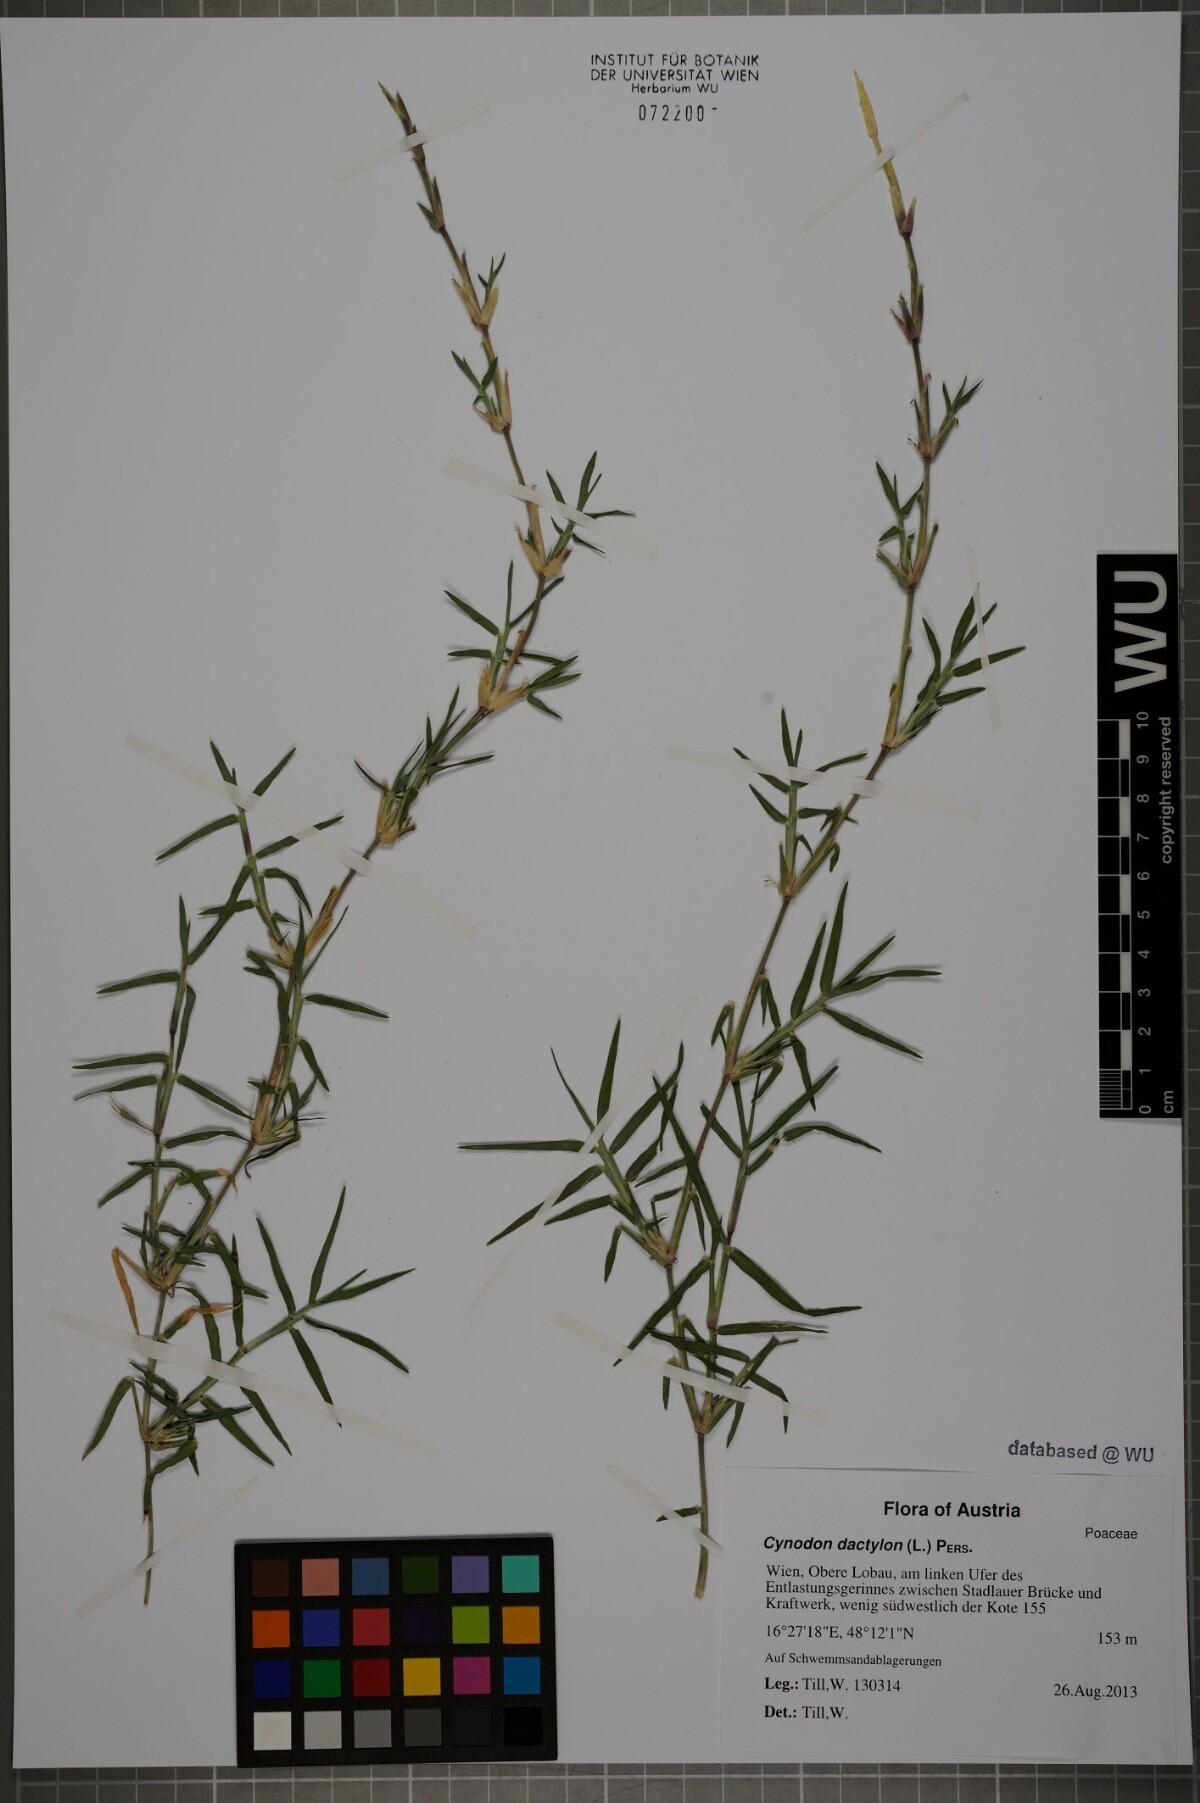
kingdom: Plantae
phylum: Tracheophyta
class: Liliopsida
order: Poales
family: Poaceae
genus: Cynodon
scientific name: Cynodon dactylon
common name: Bermuda grass
